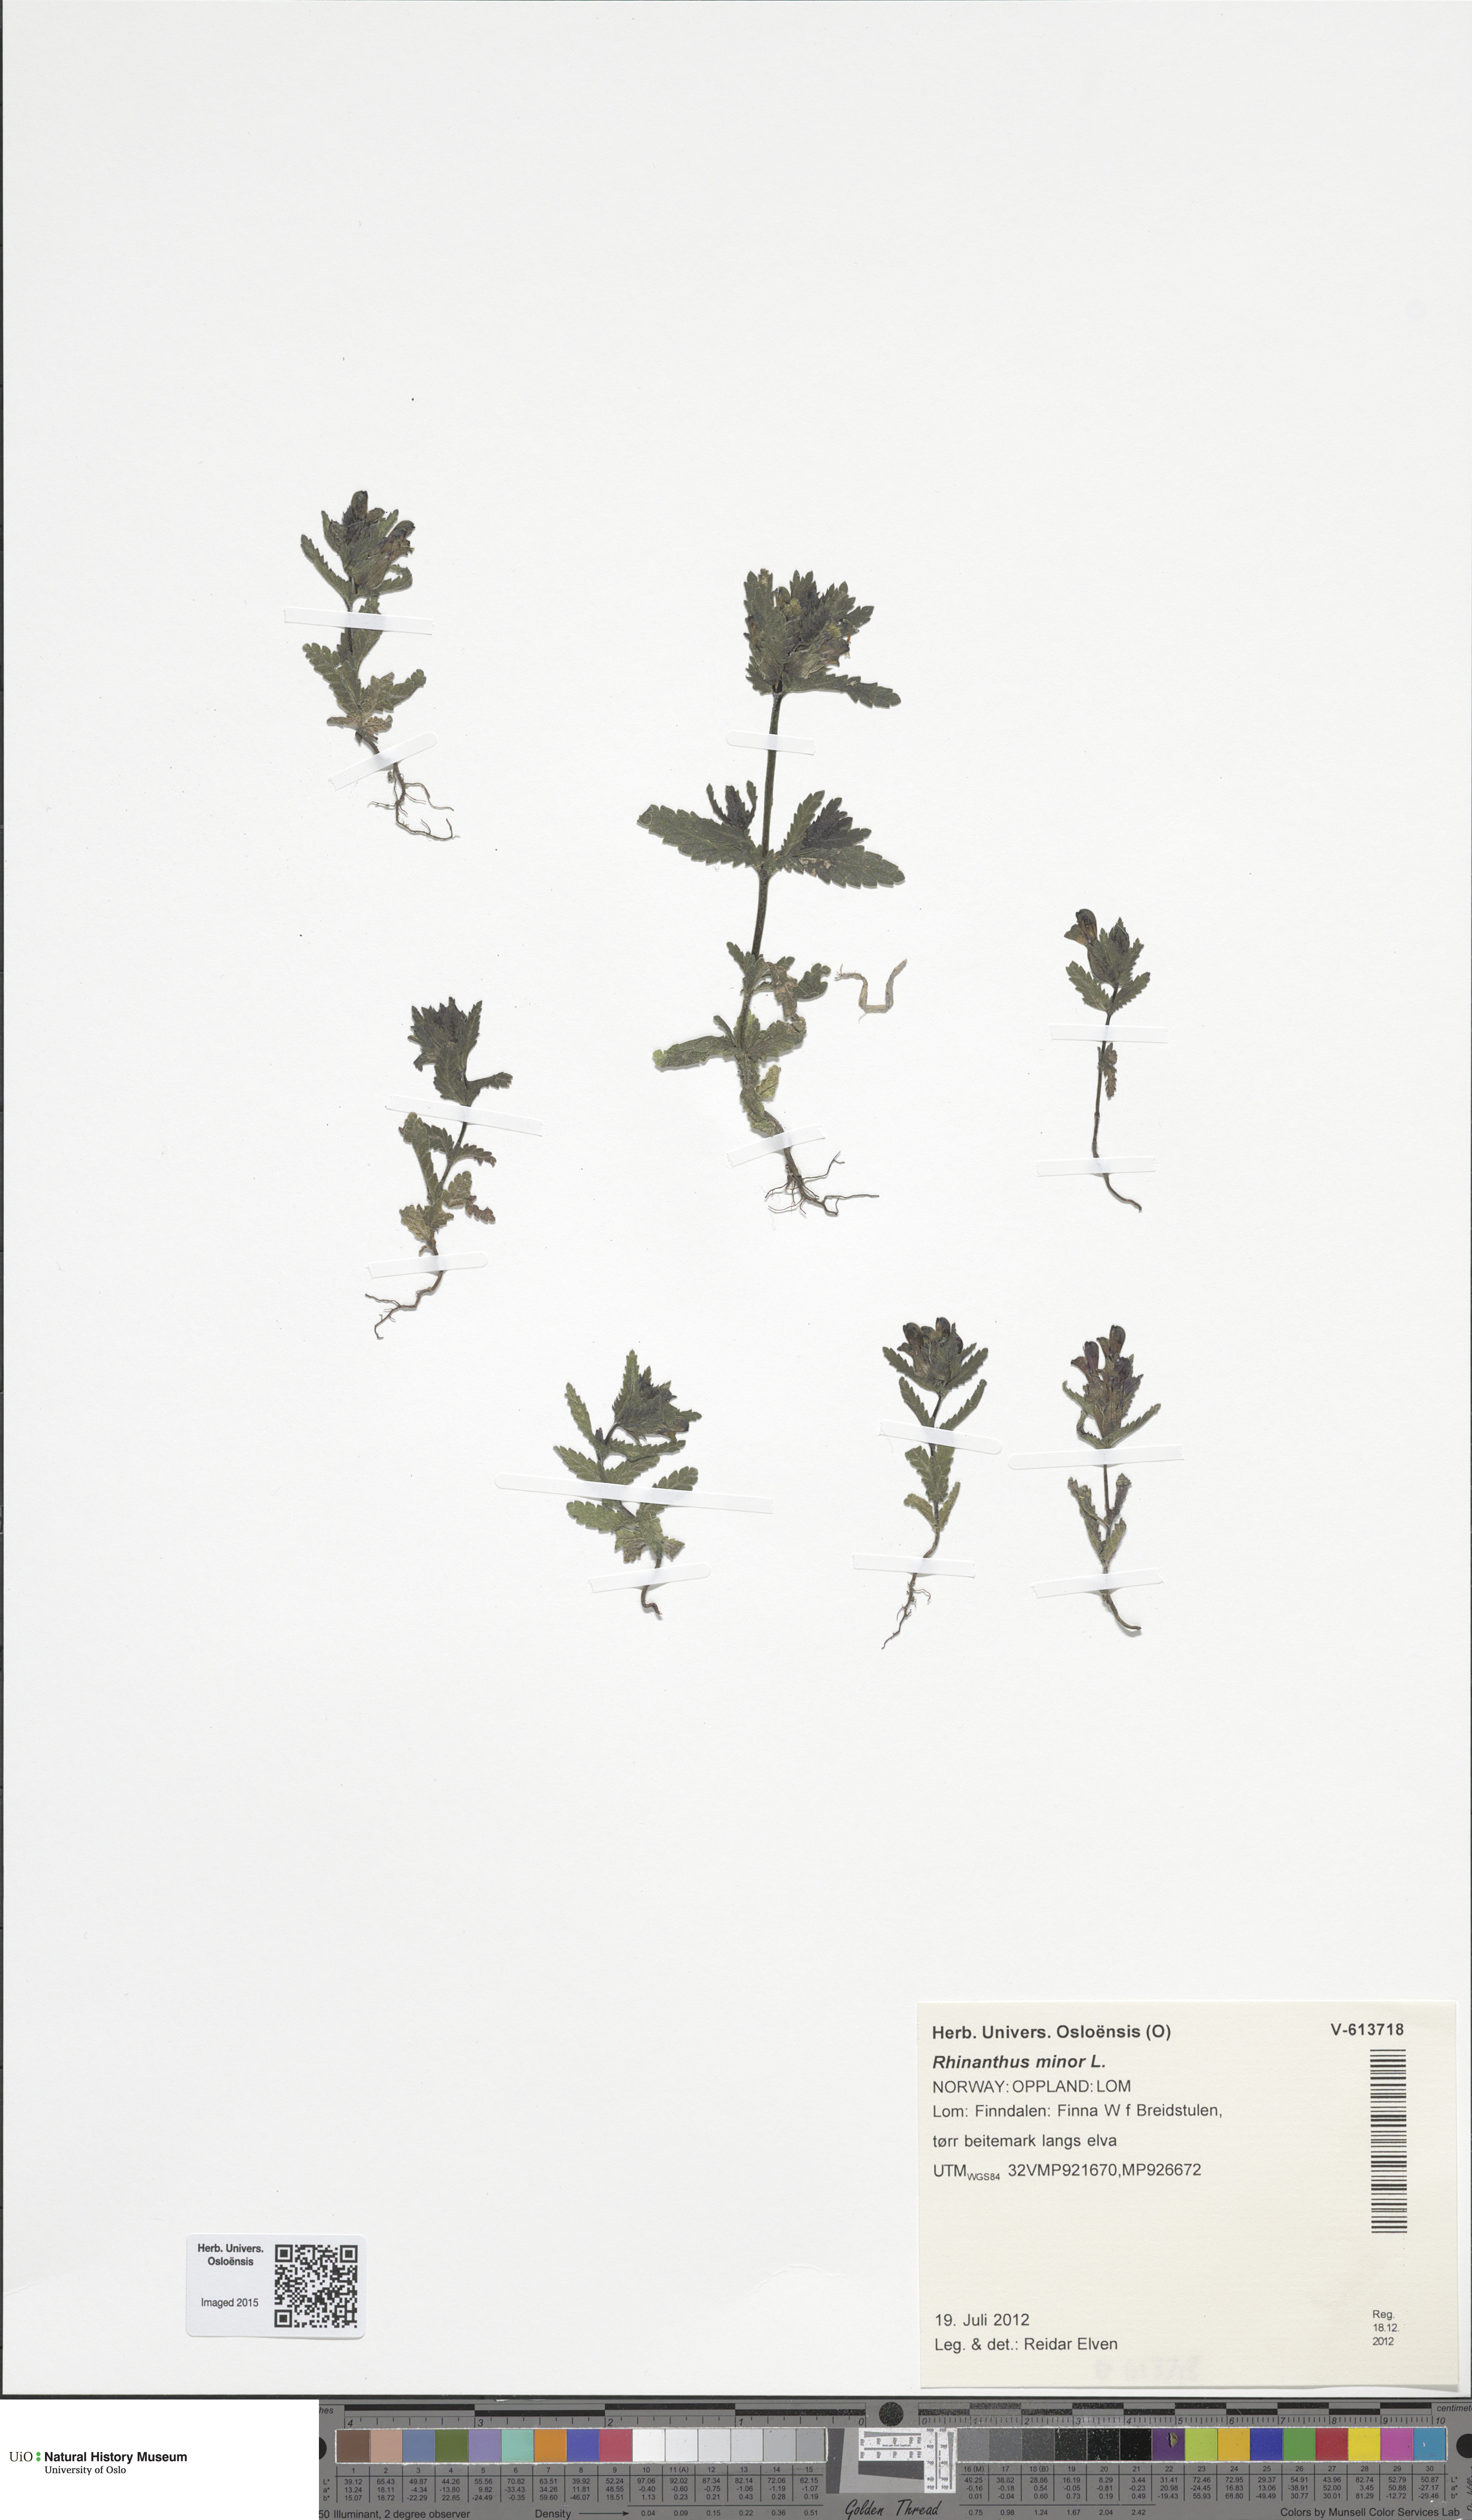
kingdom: Plantae
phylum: Tracheophyta
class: Magnoliopsida
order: Lamiales
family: Orobanchaceae
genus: Rhinanthus
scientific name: Rhinanthus minor
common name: Yellow-rattle
